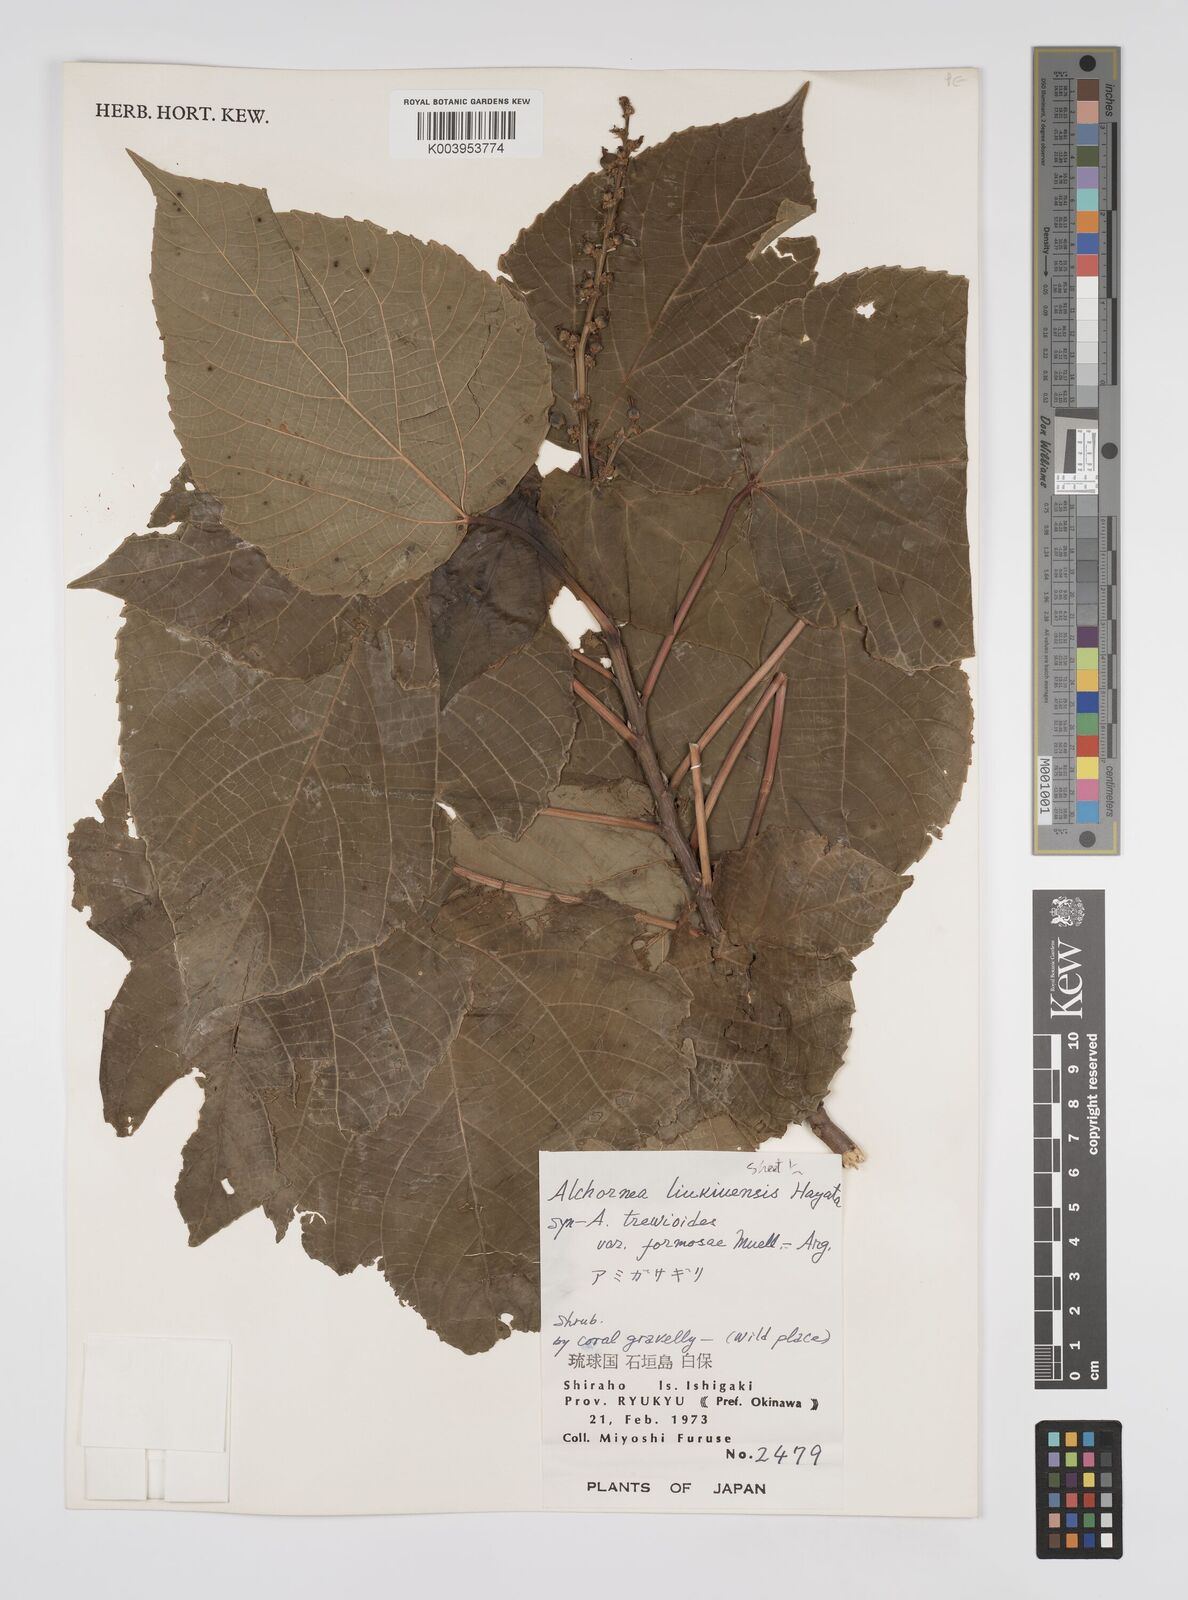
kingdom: Plantae
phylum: Tracheophyta
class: Magnoliopsida
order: Malpighiales
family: Euphorbiaceae
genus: Alchornea
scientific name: Alchornea liukiuensis
